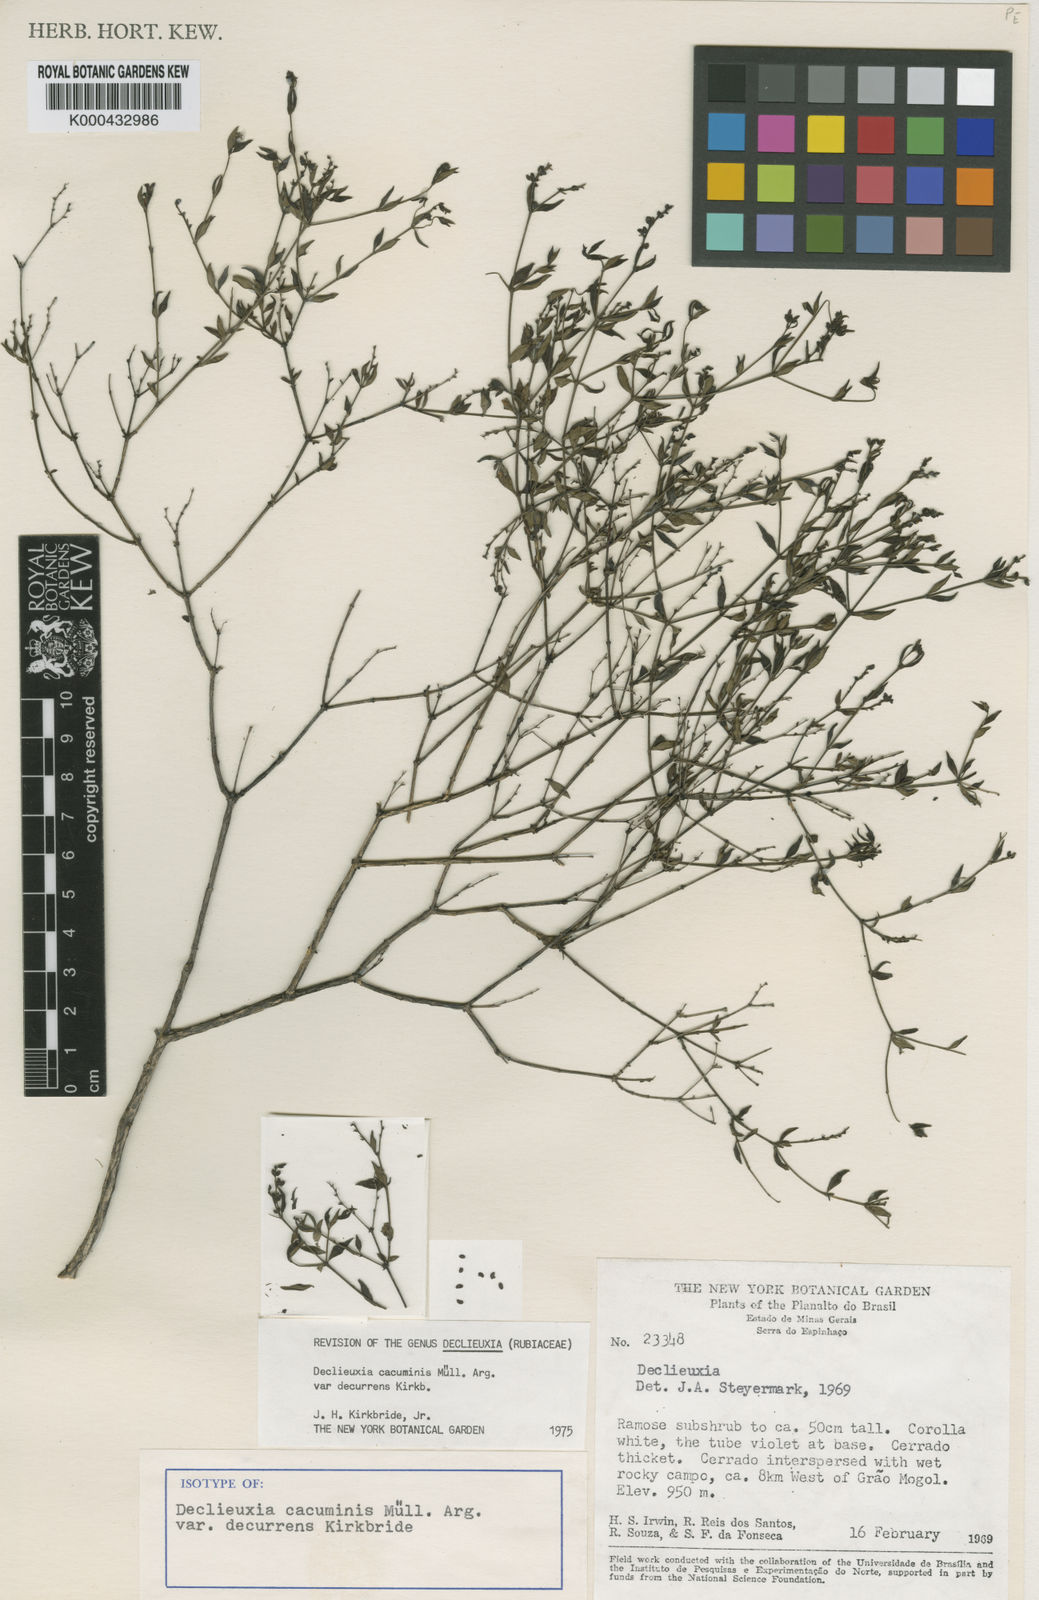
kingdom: Plantae
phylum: Tracheophyta
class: Magnoliopsida
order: Gentianales
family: Rubiaceae
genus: Declieuxia
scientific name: Declieuxia
